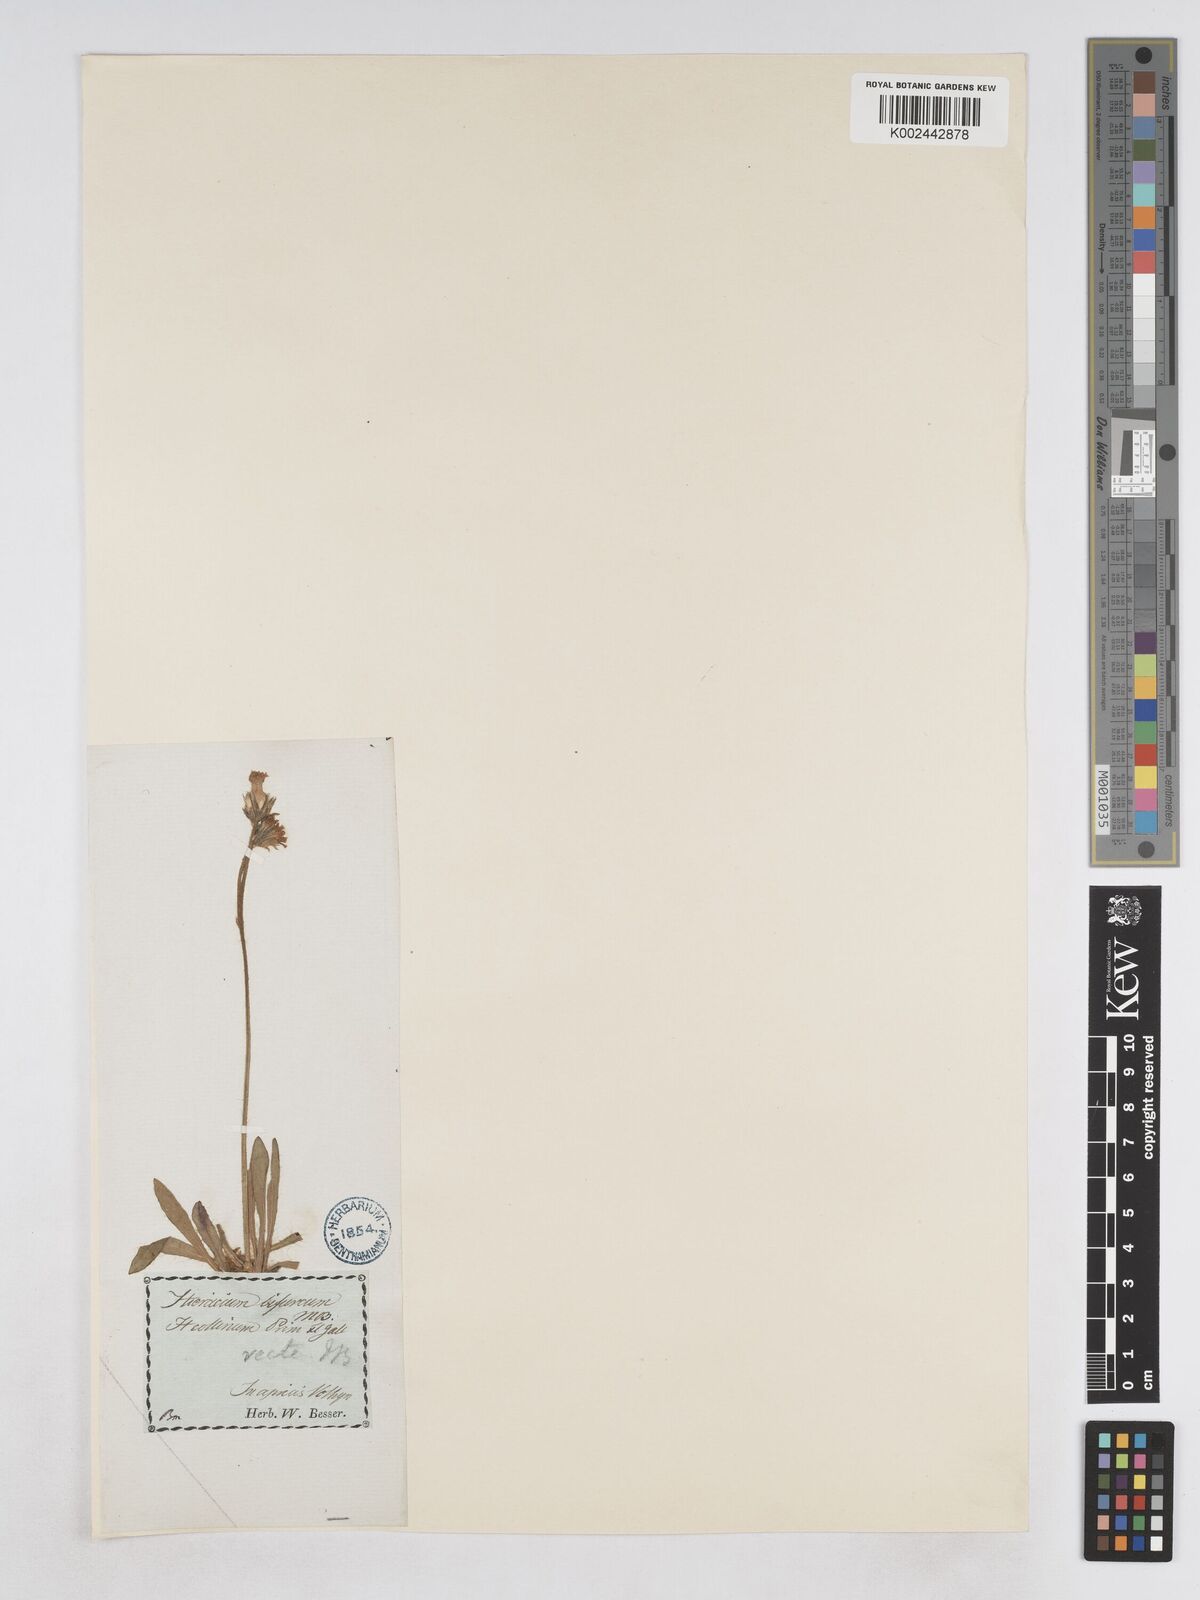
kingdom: Plantae
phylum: Tracheophyta
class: Magnoliopsida
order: Asterales
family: Asteraceae
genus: Pilosella
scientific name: Pilosella bifurca
